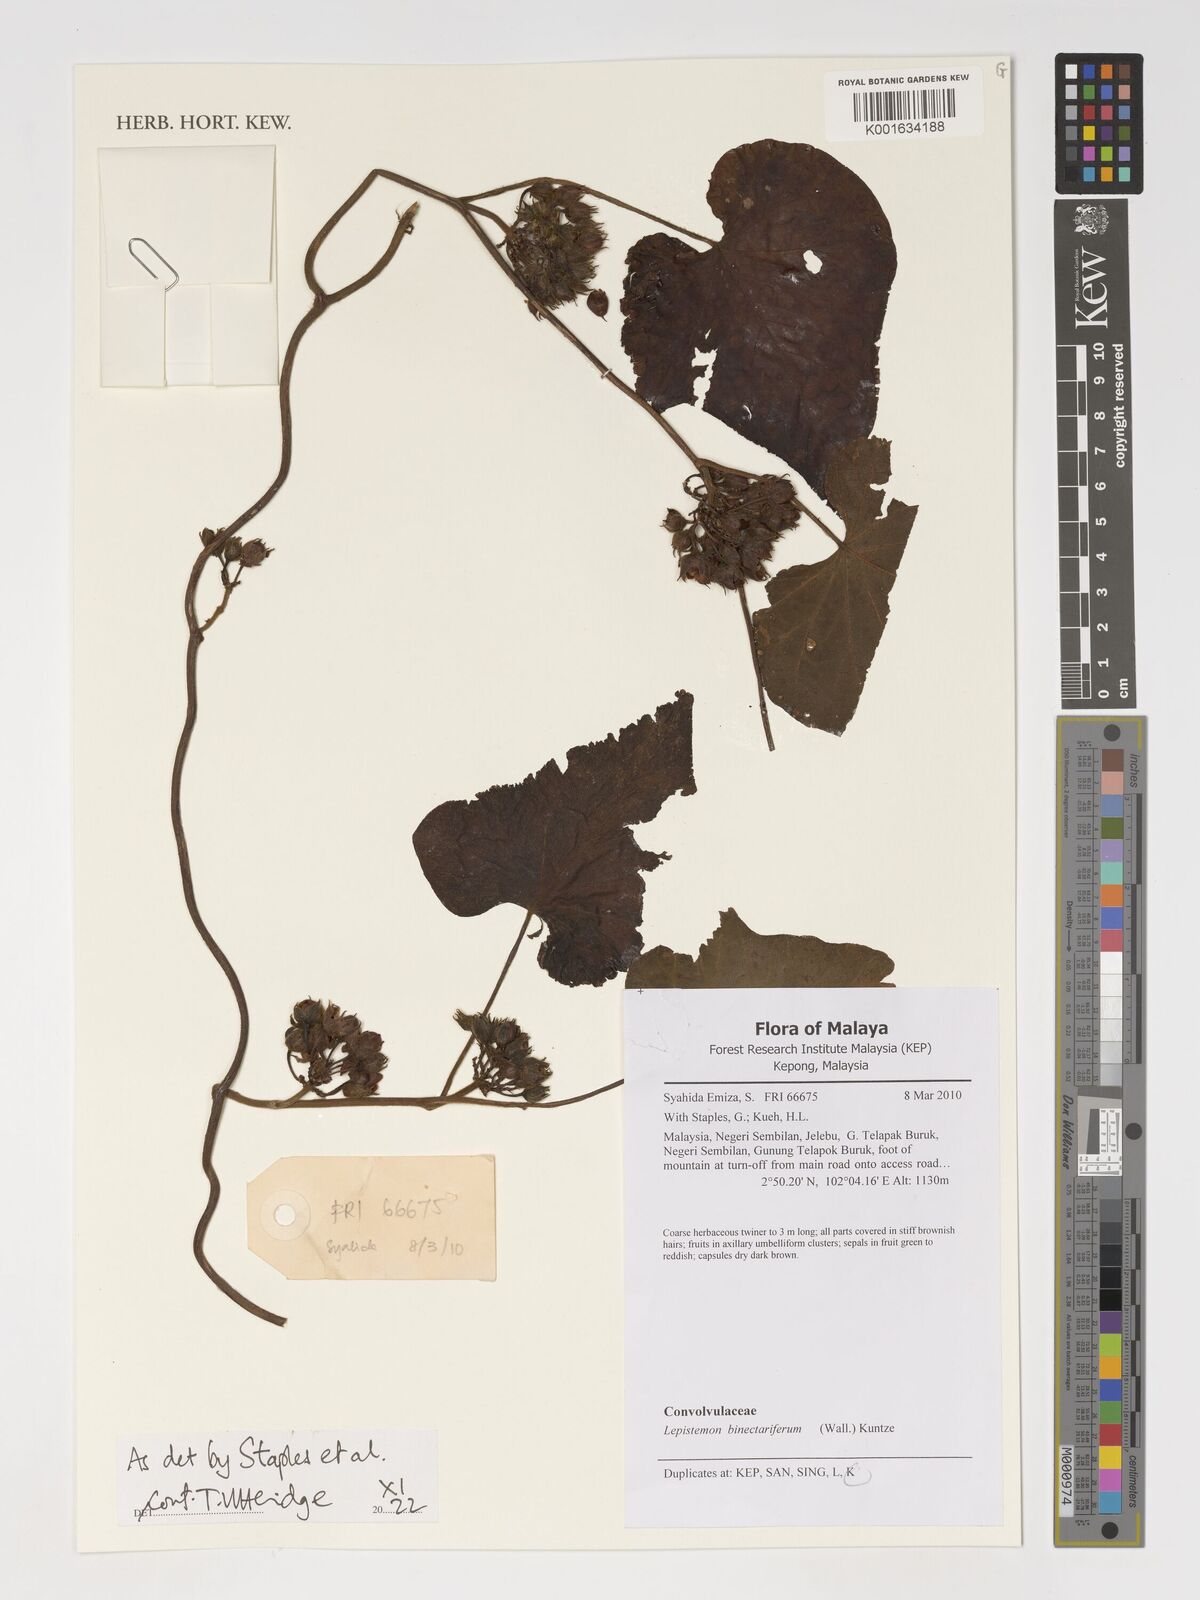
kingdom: Plantae
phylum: Tracheophyta
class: Magnoliopsida
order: Solanales
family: Convolvulaceae
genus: Lepistemon
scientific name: Lepistemon binectarifer
